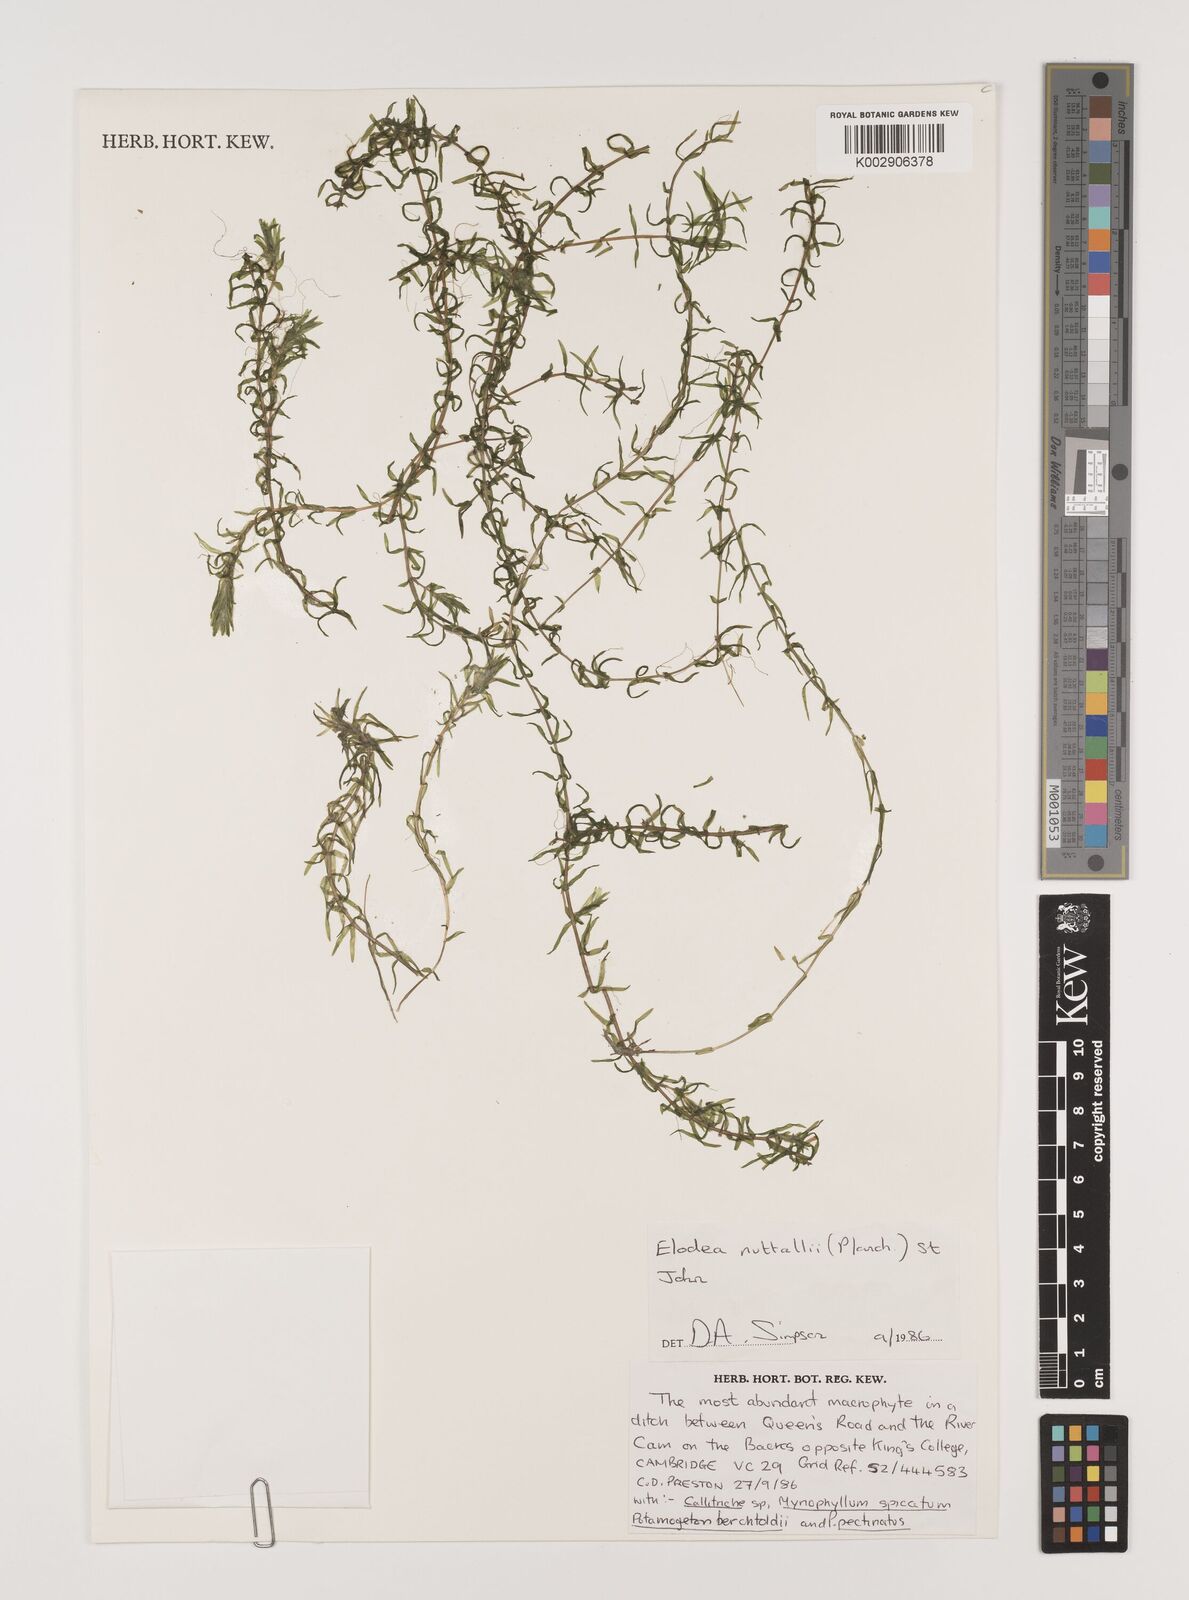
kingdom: Plantae
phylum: Tracheophyta
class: Liliopsida
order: Alismatales
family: Hydrocharitaceae
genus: Elodea
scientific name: Elodea nuttallii
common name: Nuttall's waterweed
